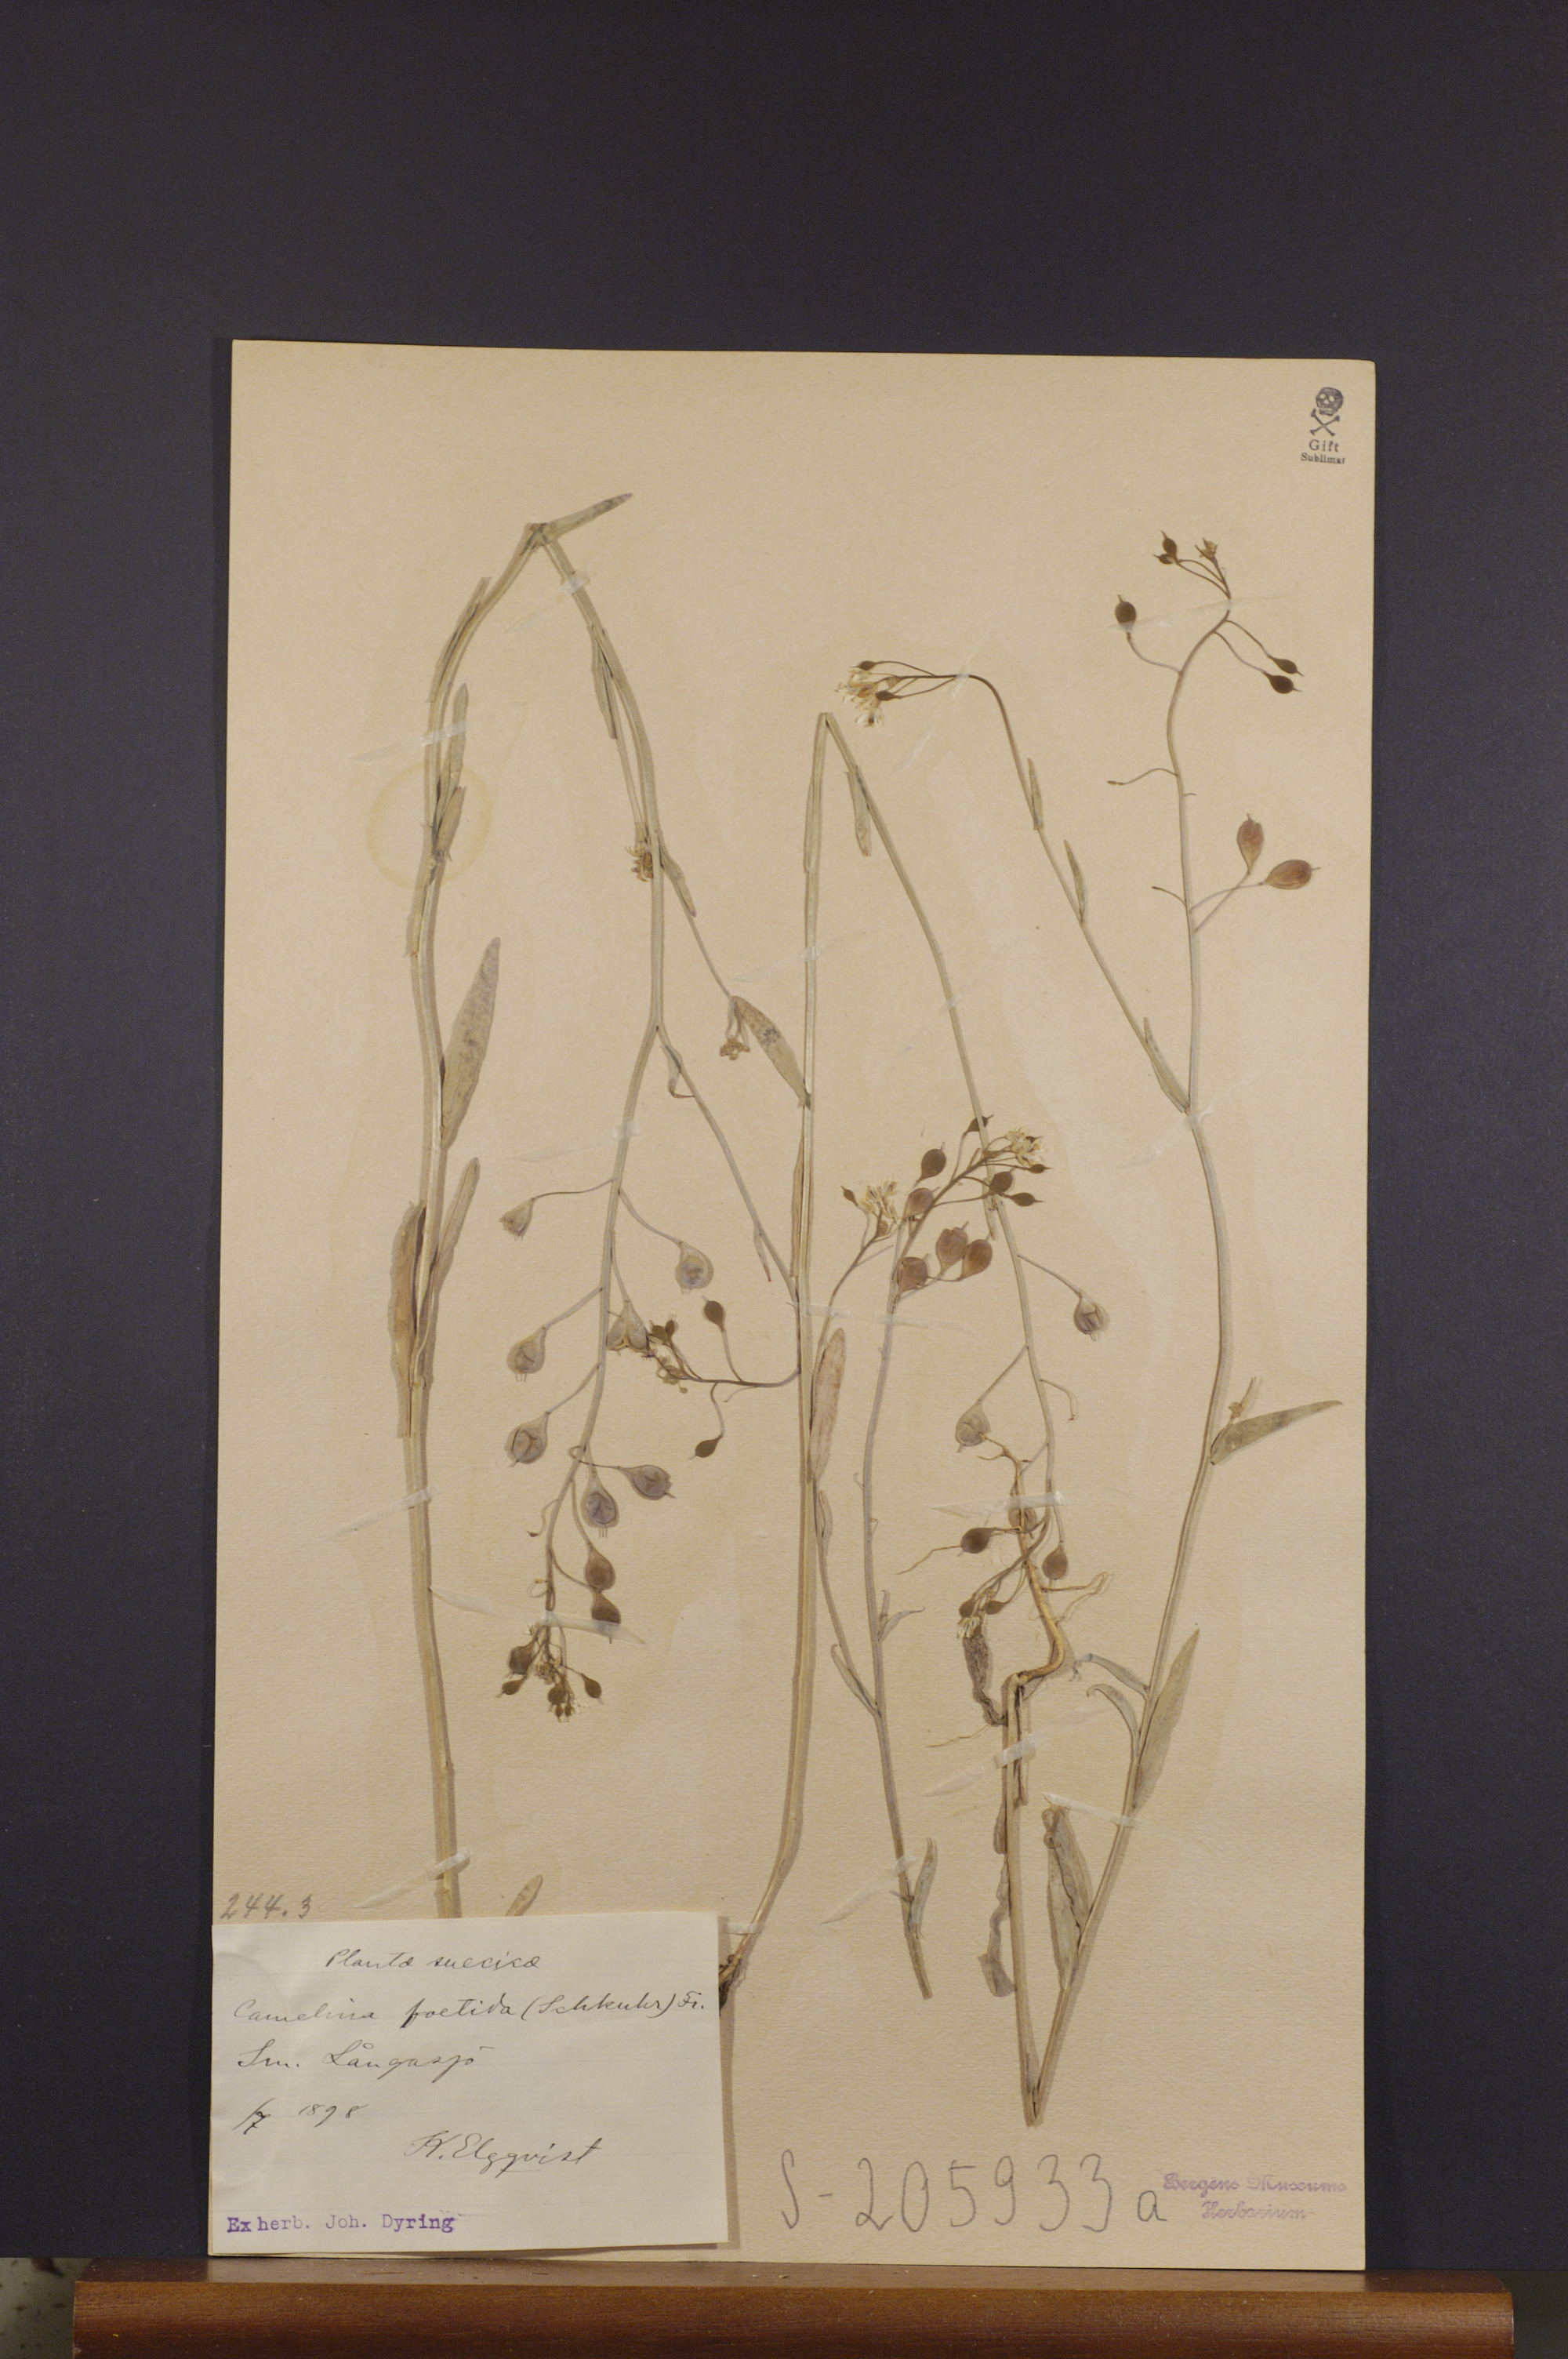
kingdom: Plantae
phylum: Tracheophyta
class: Magnoliopsida
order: Brassicales
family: Brassicaceae
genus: Camelina
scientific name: Camelina alyssum
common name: Gold-of-pleasure
